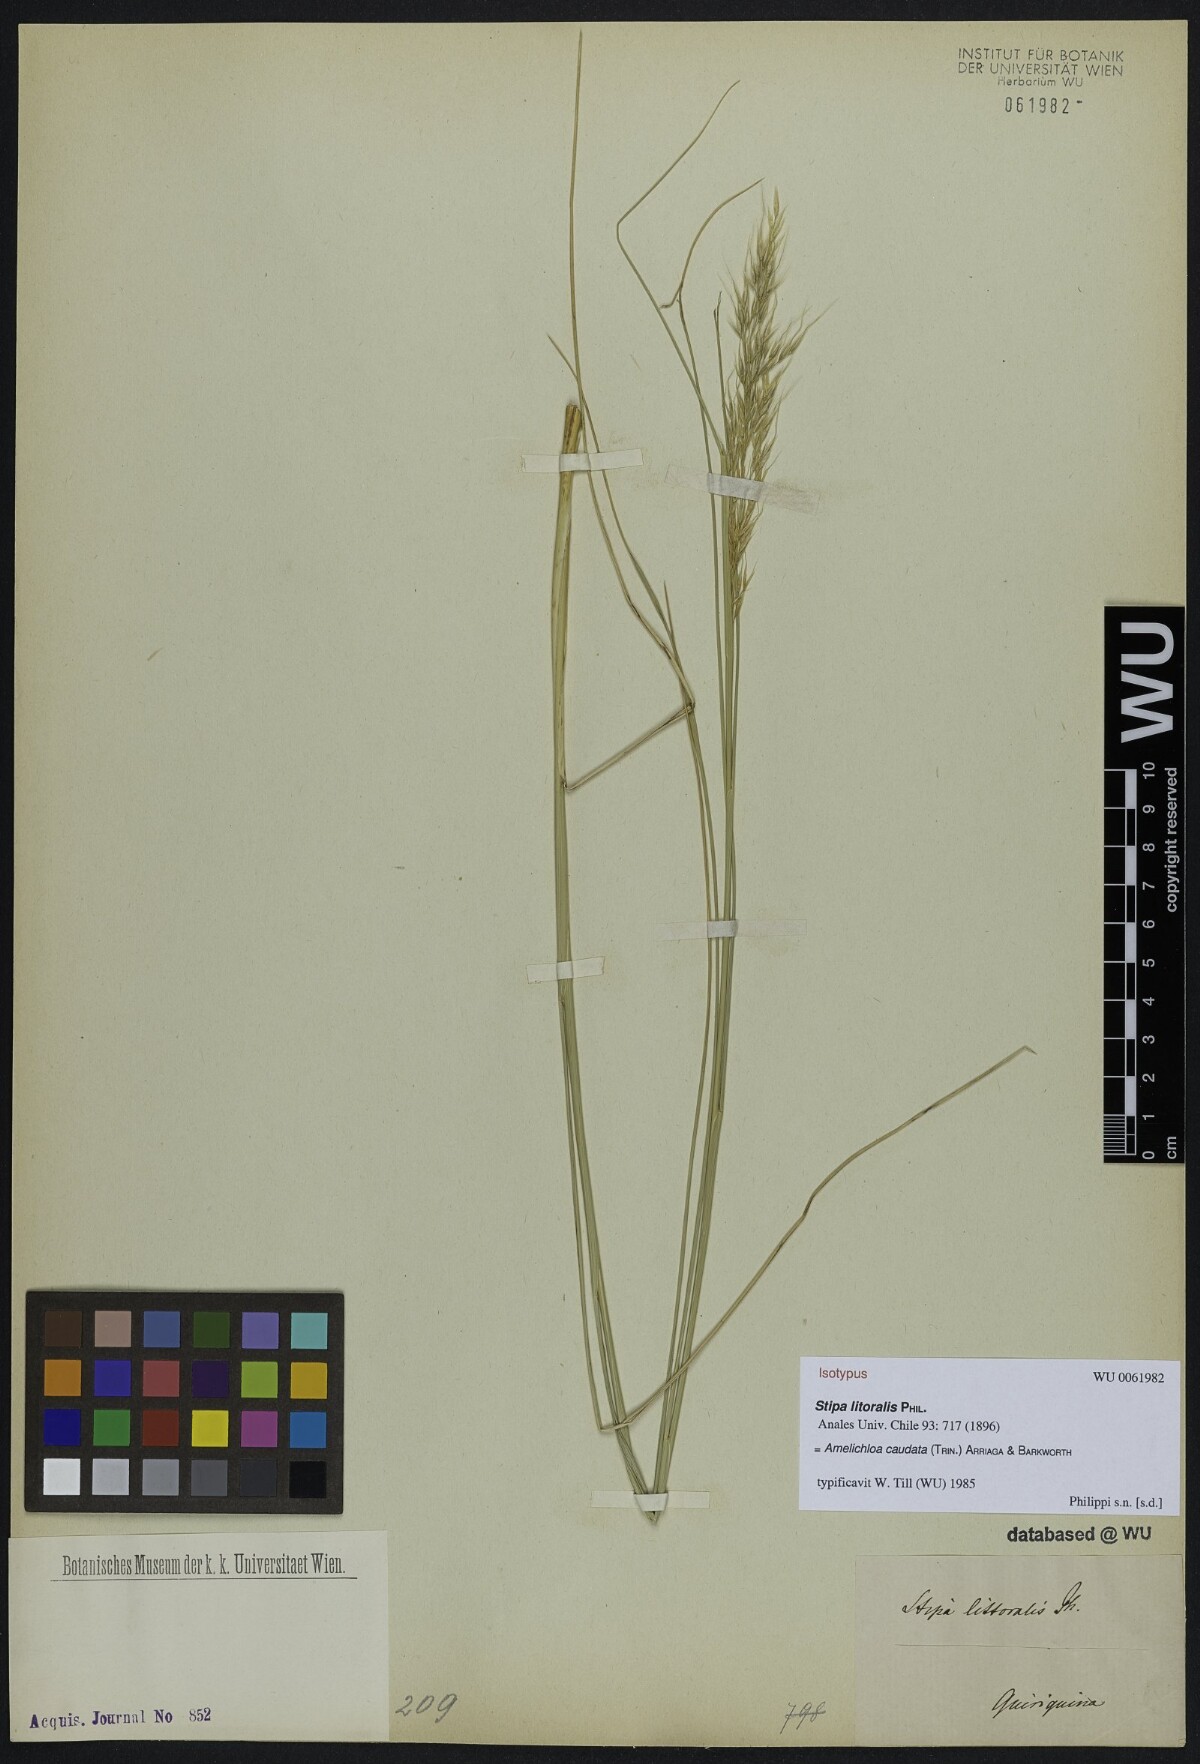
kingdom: Plantae
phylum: Tracheophyta
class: Liliopsida
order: Poales
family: Poaceae
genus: Amelichloa
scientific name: Amelichloa caudata
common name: Chilean ricegrass
